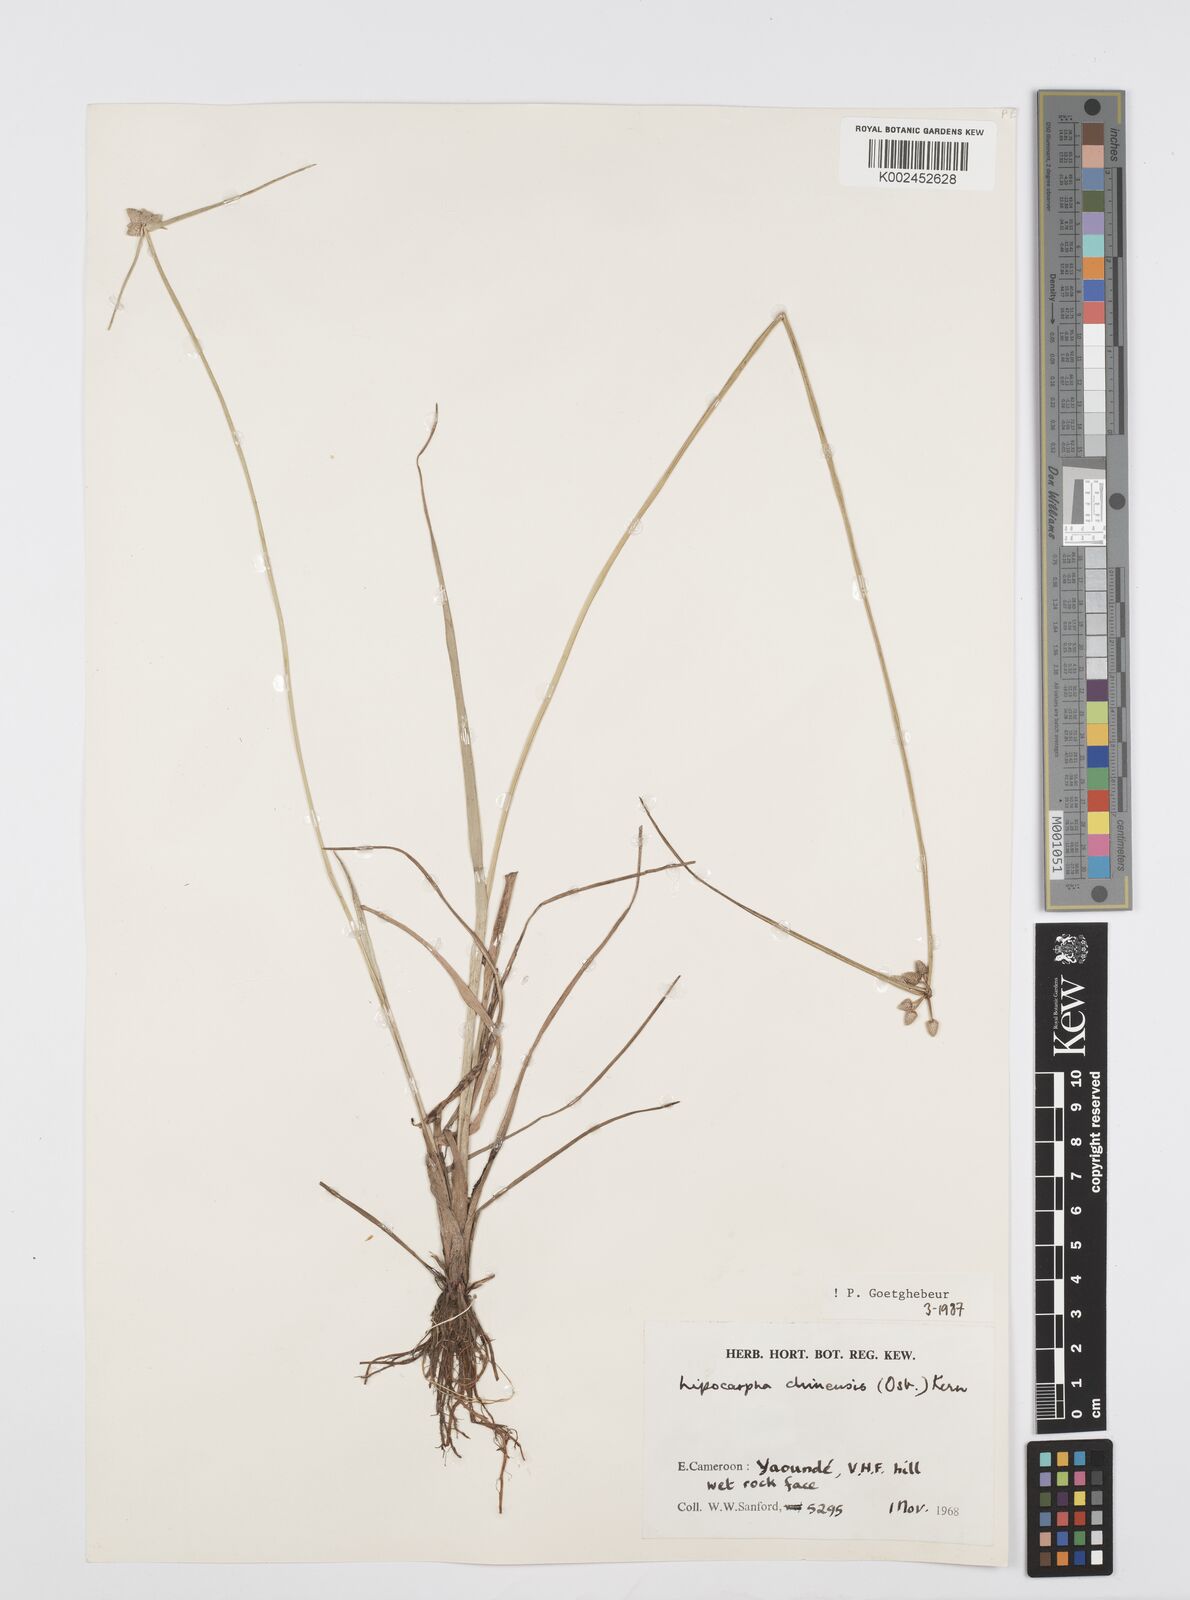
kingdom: Plantae
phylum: Tracheophyta
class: Liliopsida
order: Poales
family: Cyperaceae
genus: Cyperus
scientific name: Cyperus albescens
